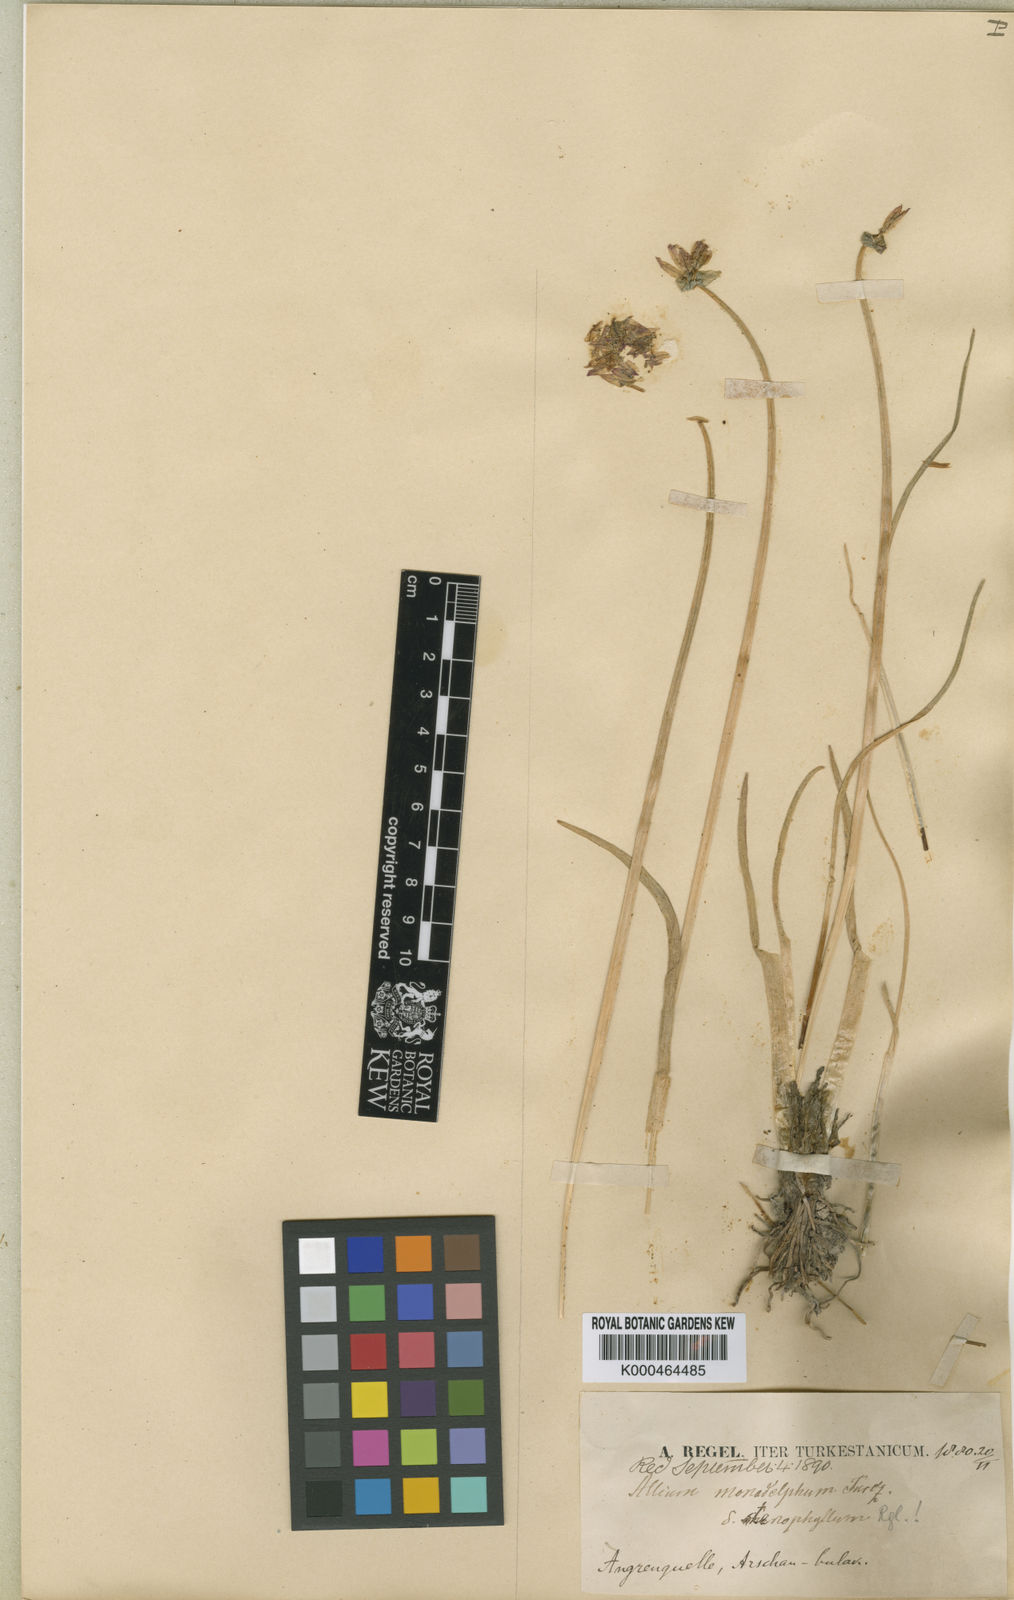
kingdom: Plantae
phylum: Tracheophyta
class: Liliopsida
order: Asparagales
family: Amaryllidaceae
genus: Allium
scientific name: Allium atrosanguineum
